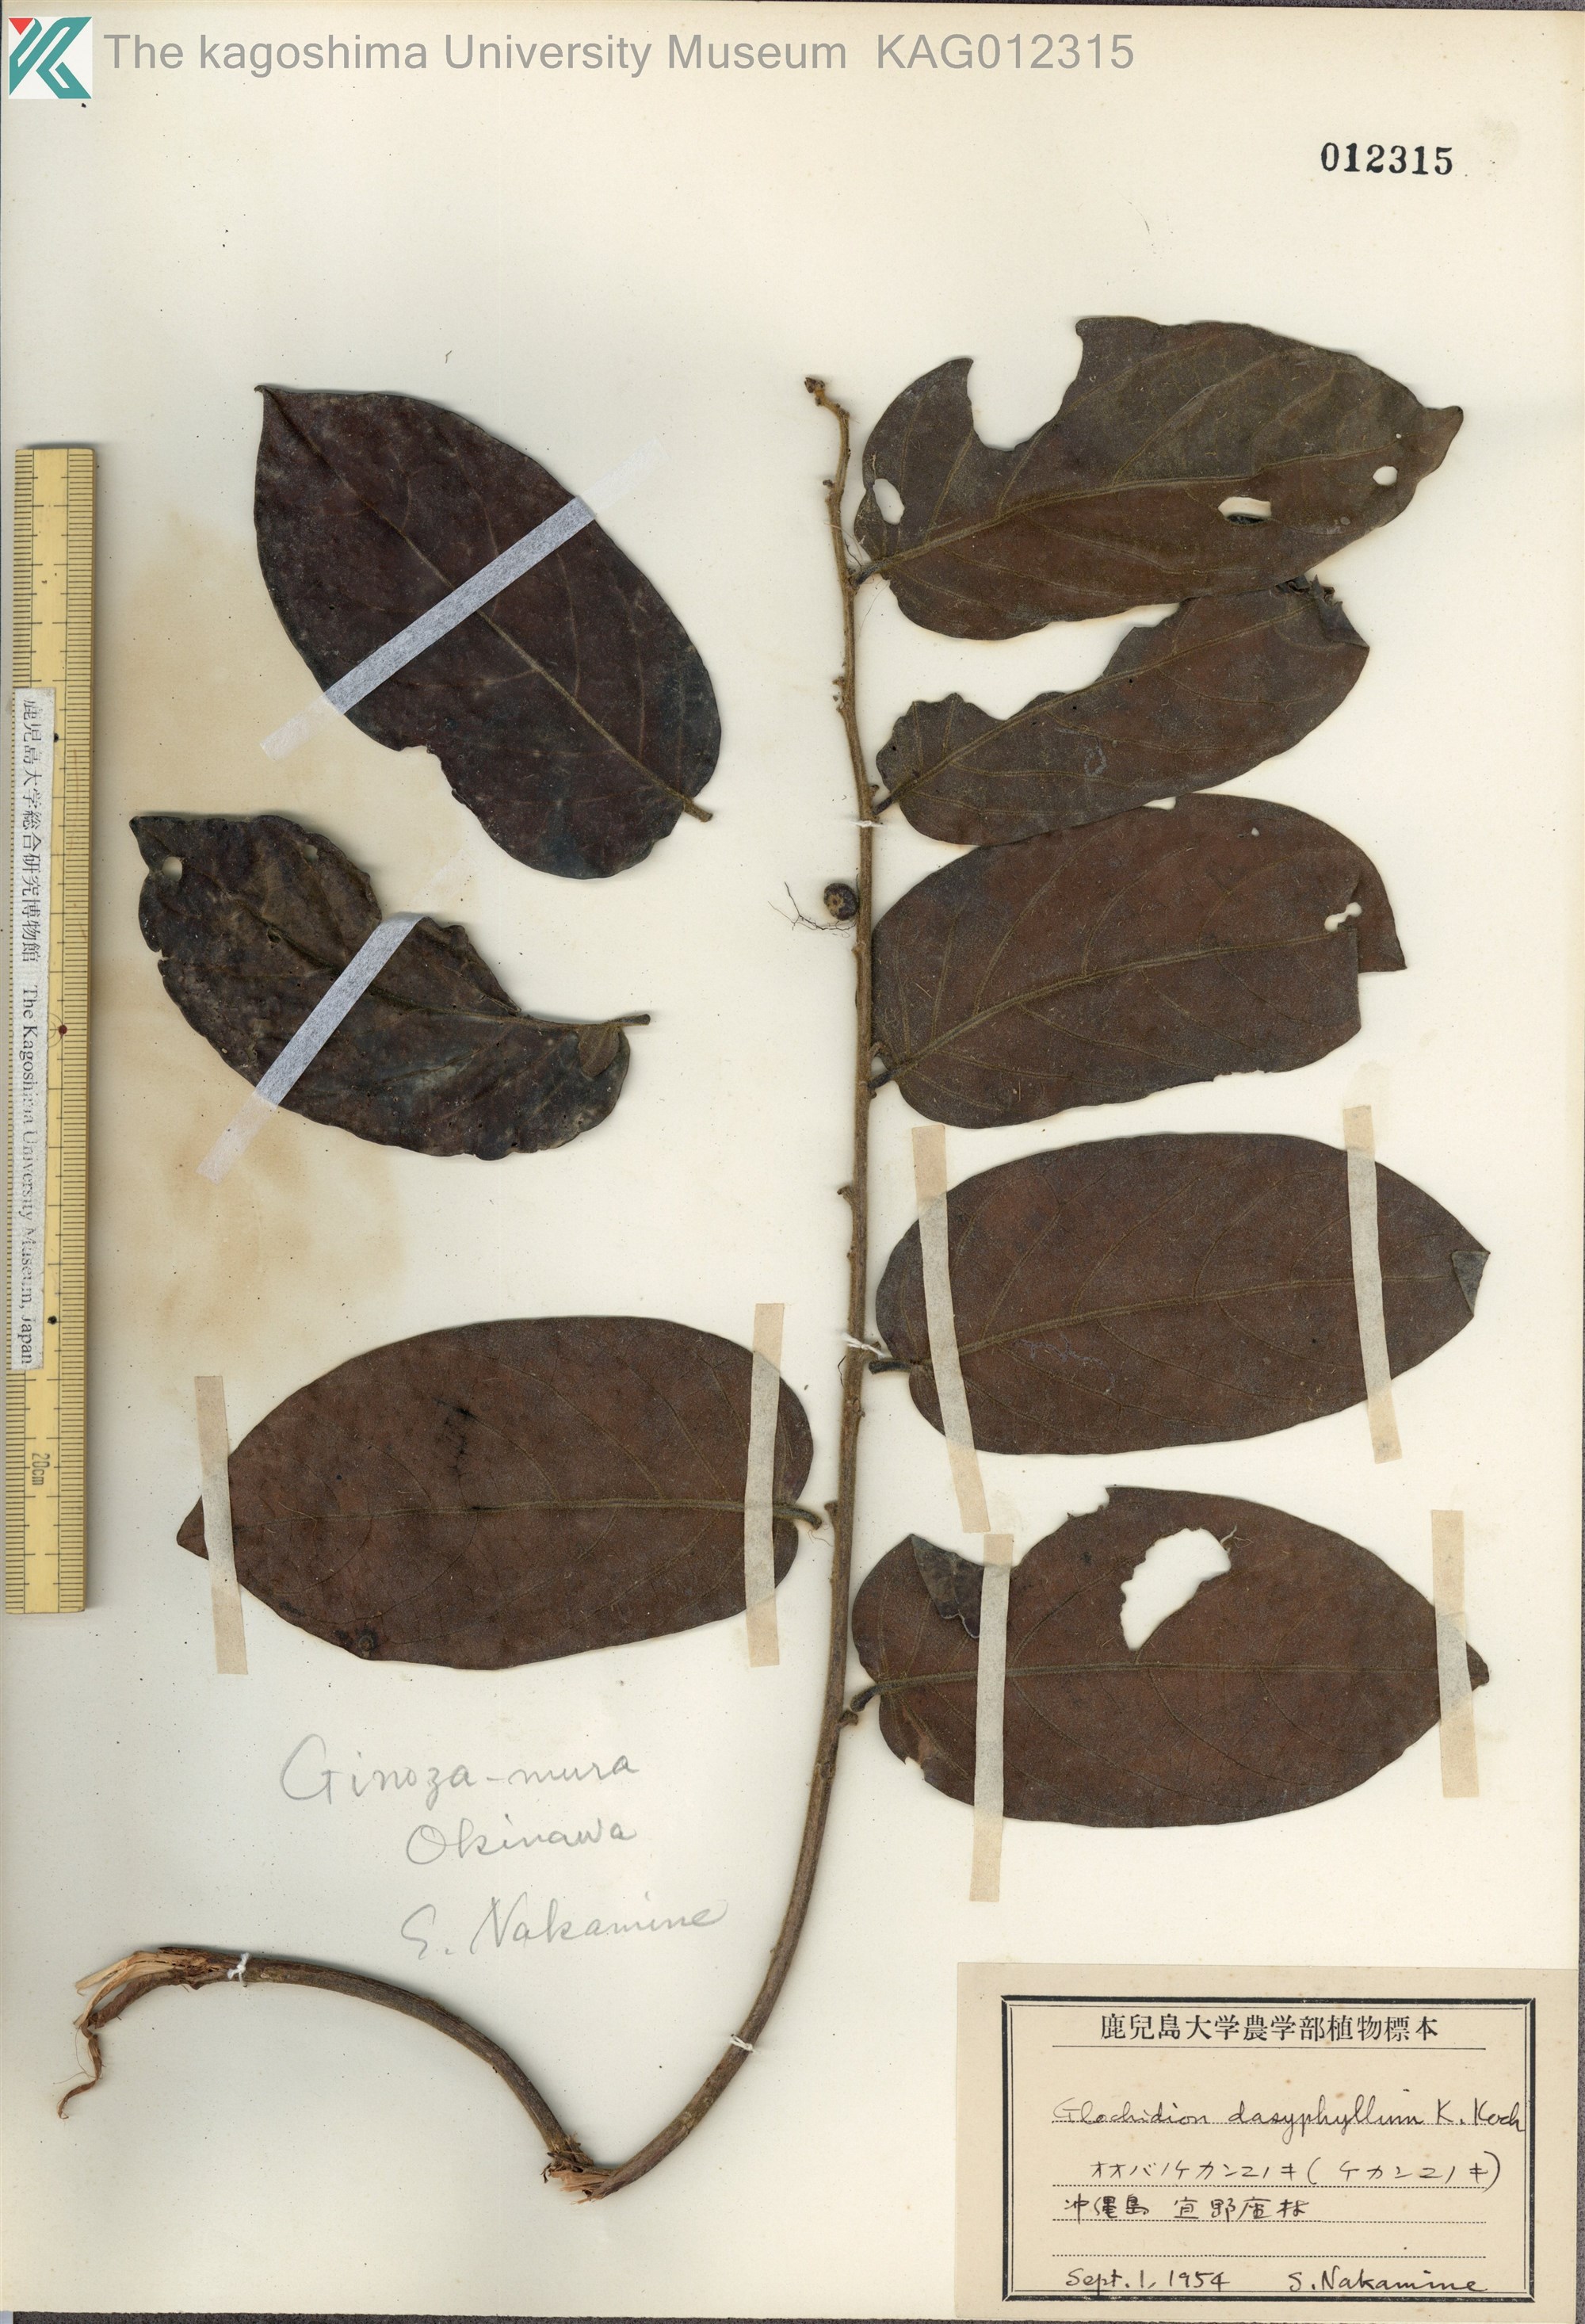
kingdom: Plantae
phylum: Tracheophyta
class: Magnoliopsida
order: Malpighiales
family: Phyllanthaceae
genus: Glochidion
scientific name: Glochidion zeylanicum
